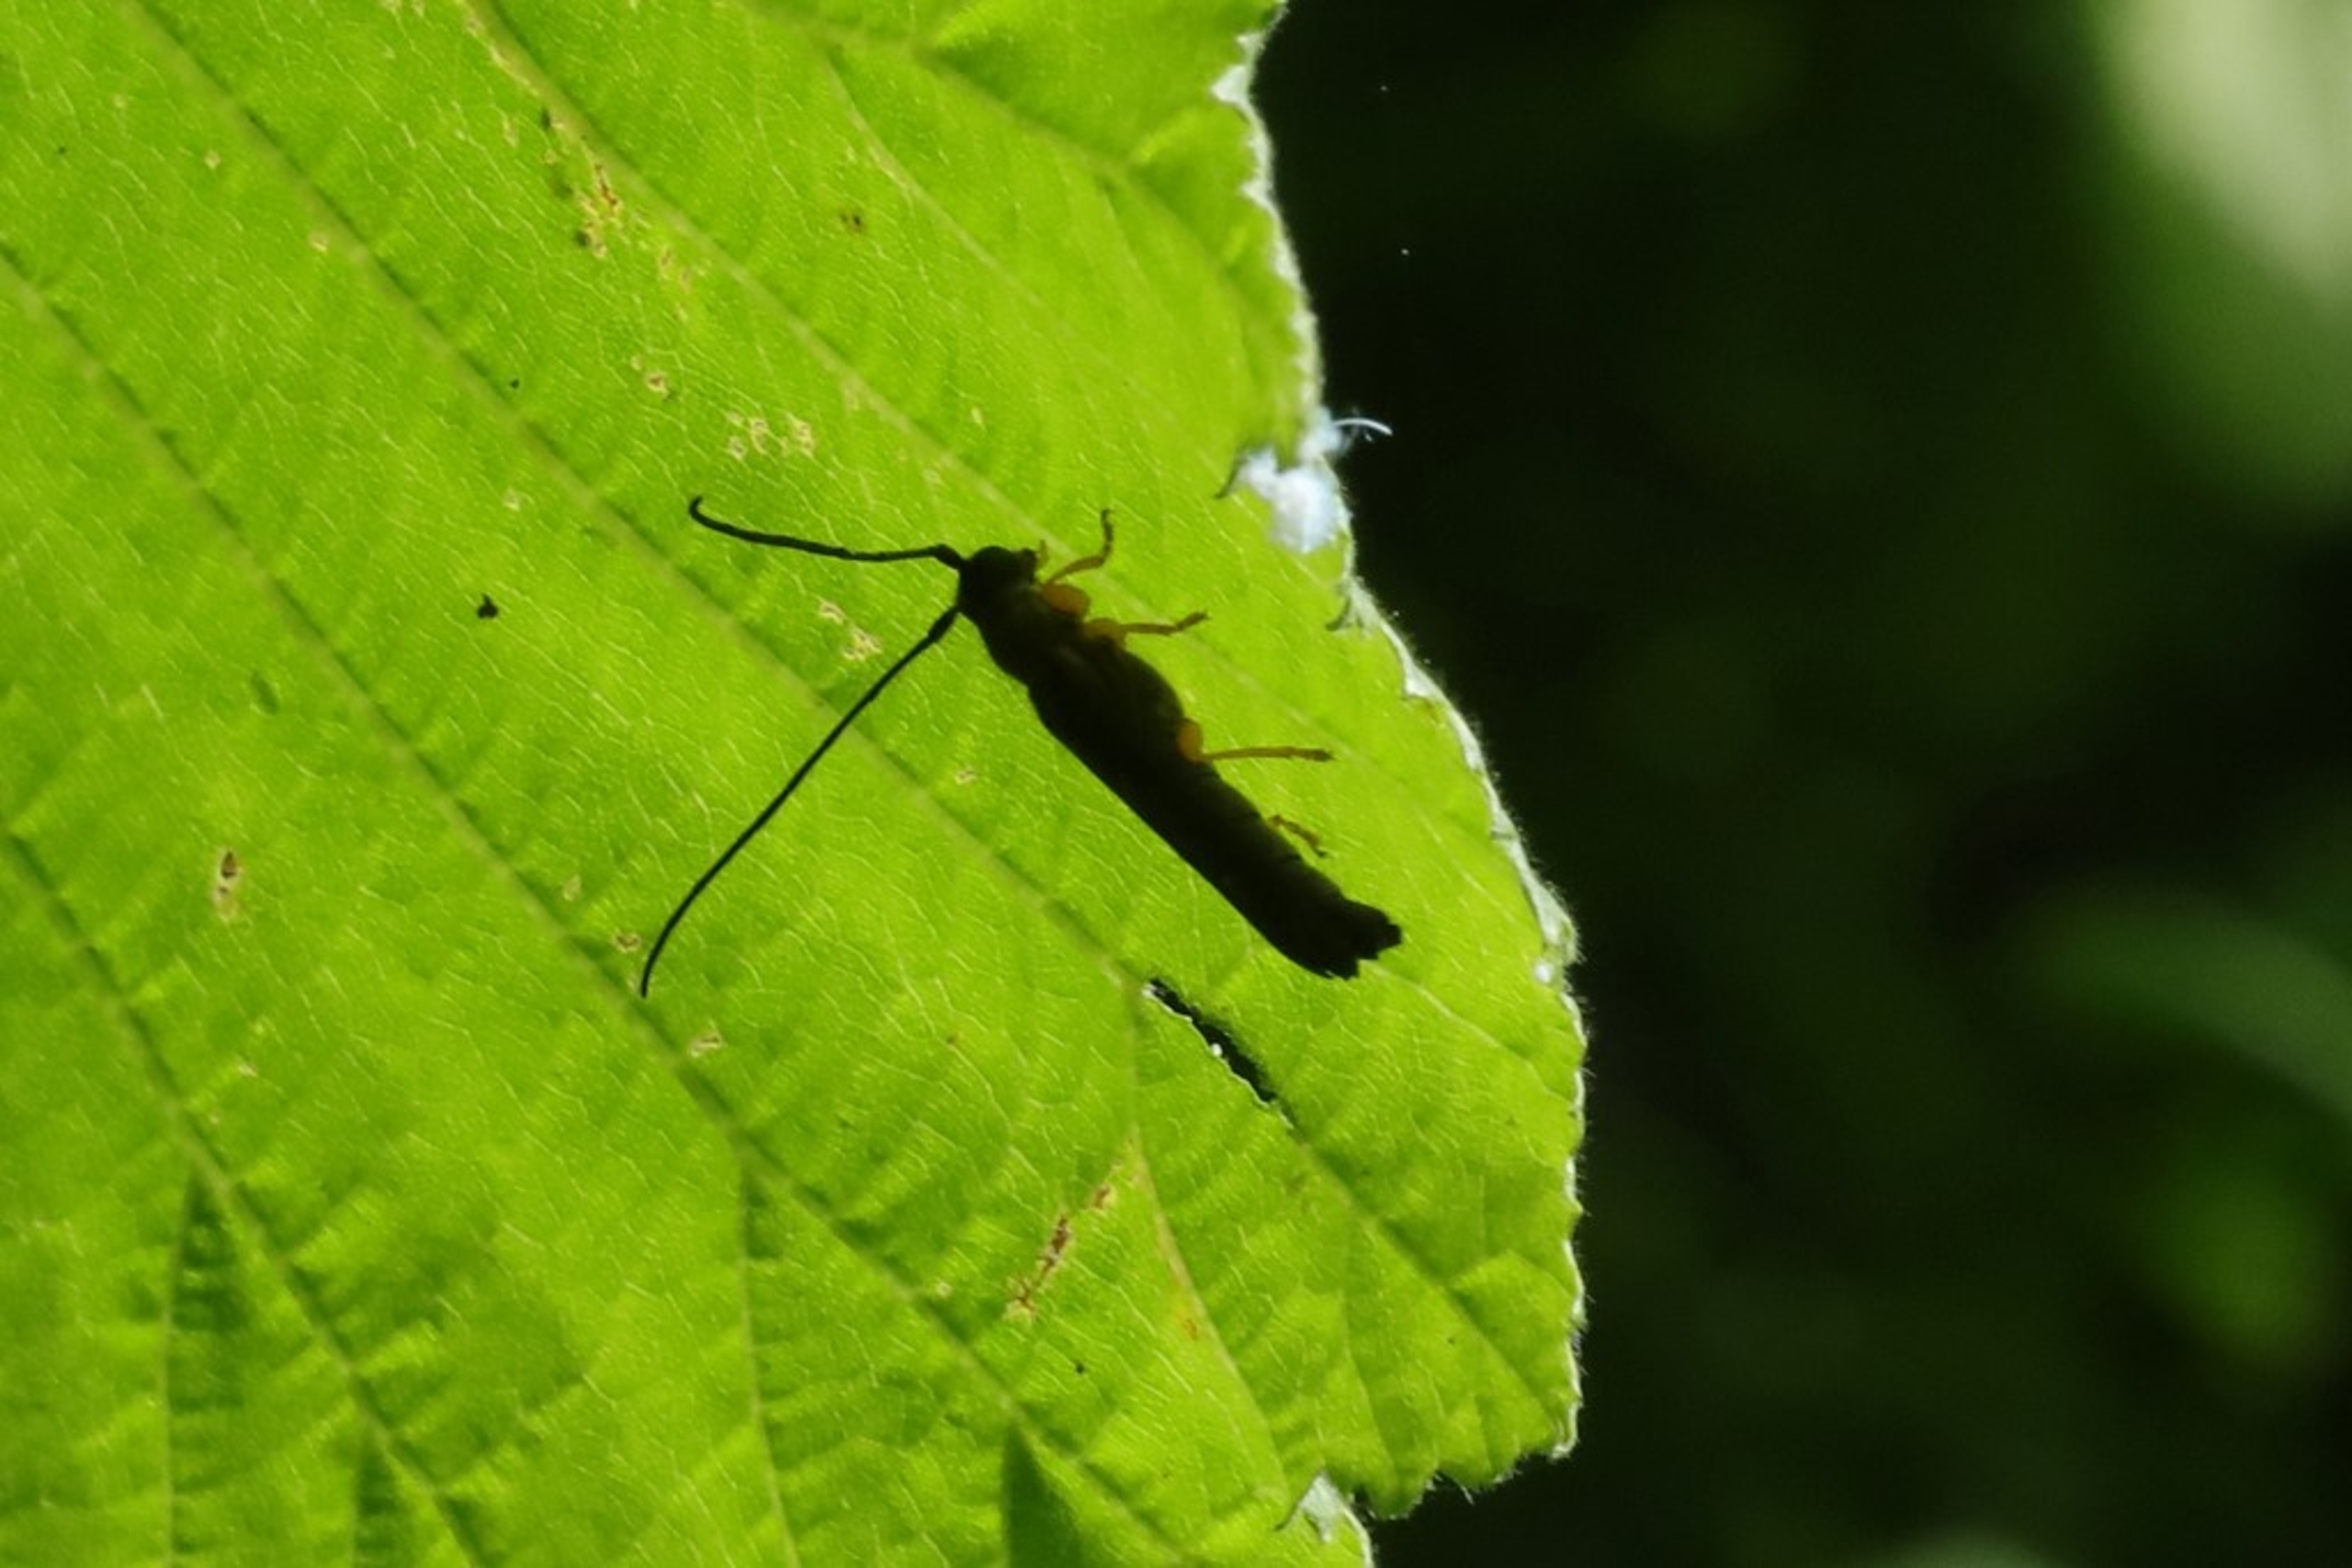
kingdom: Animalia
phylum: Arthropoda
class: Insecta
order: Coleoptera
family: Cerambycidae
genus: Oberea
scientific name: Oberea linearis
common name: Hasselbuk
